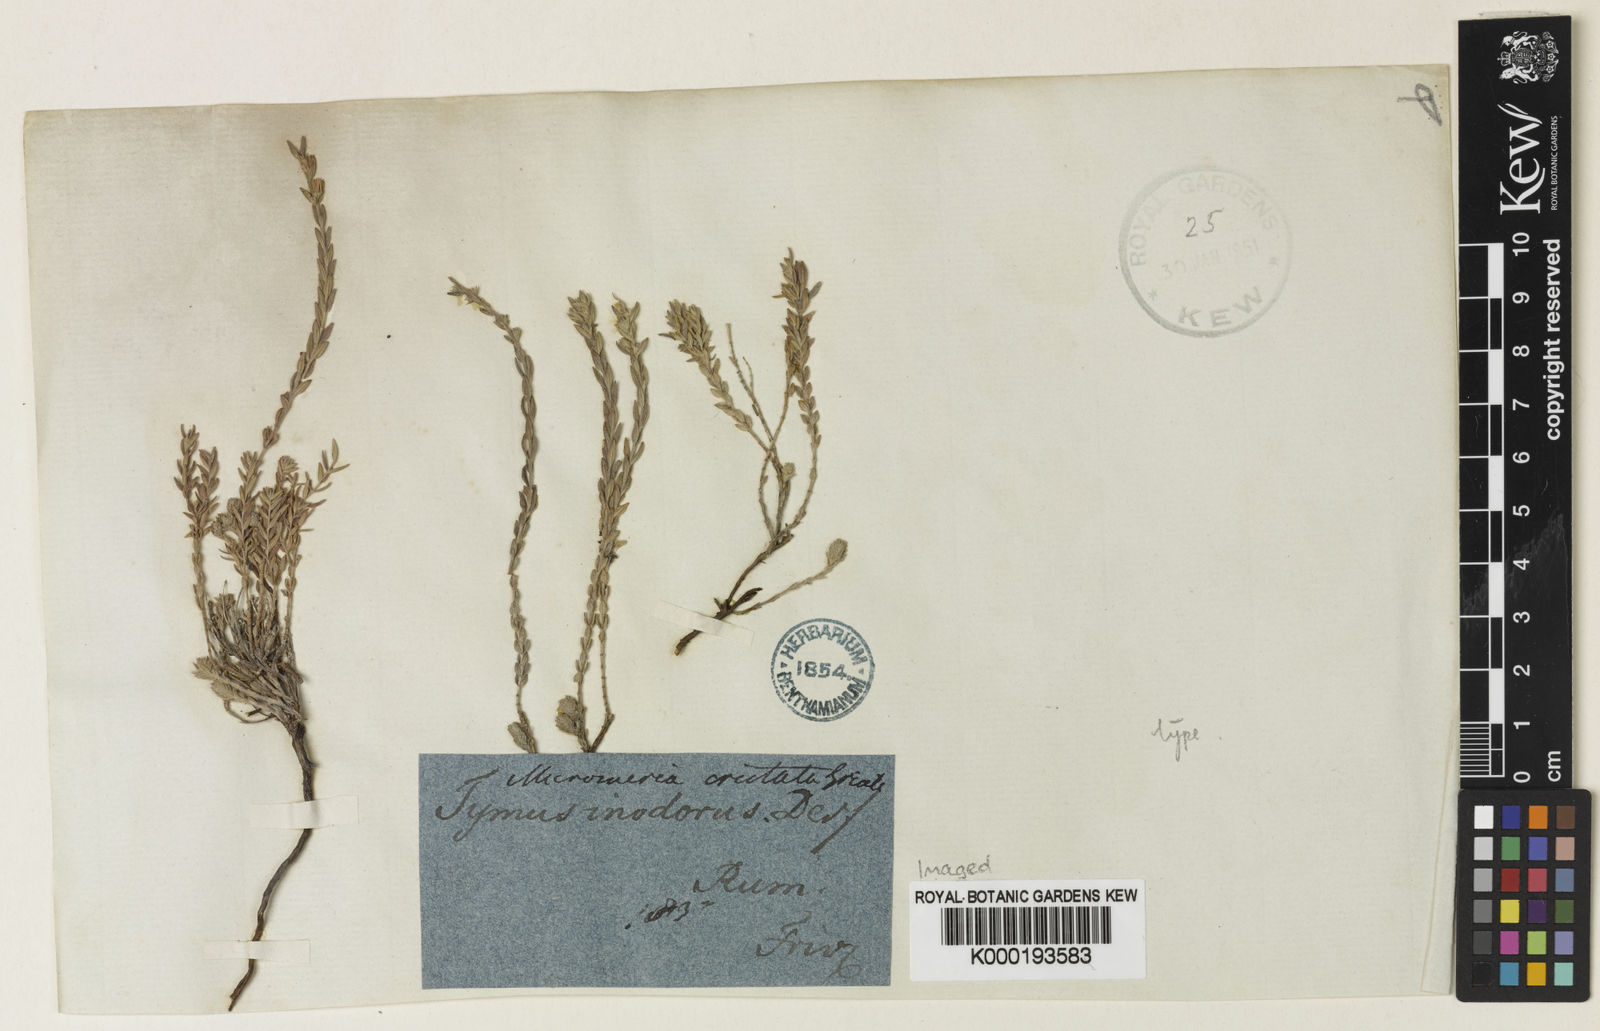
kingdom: Plantae
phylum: Tracheophyta
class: Magnoliopsida
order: Lamiales
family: Lamiaceae
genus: Micromeria
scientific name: Micromeria cristata
